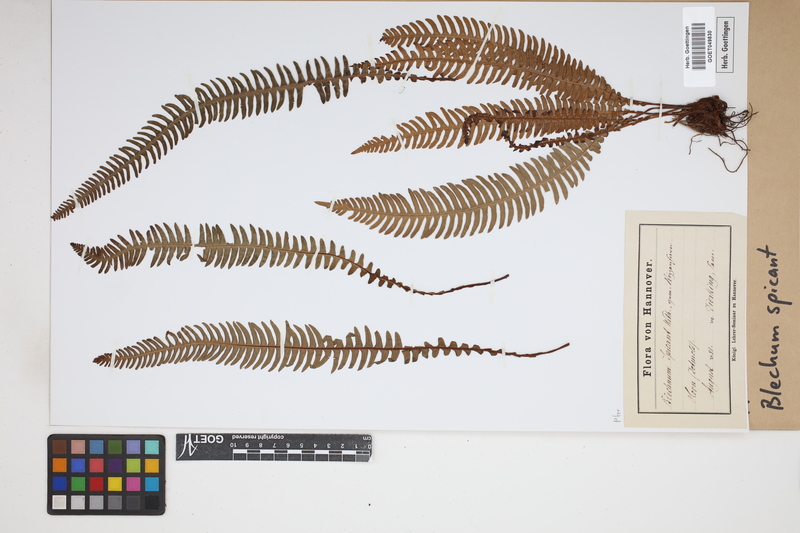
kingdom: Plantae
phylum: Tracheophyta
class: Polypodiopsida
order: Polypodiales
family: Blechnaceae
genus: Struthiopteris
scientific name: Struthiopteris spicant
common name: Deer fern
